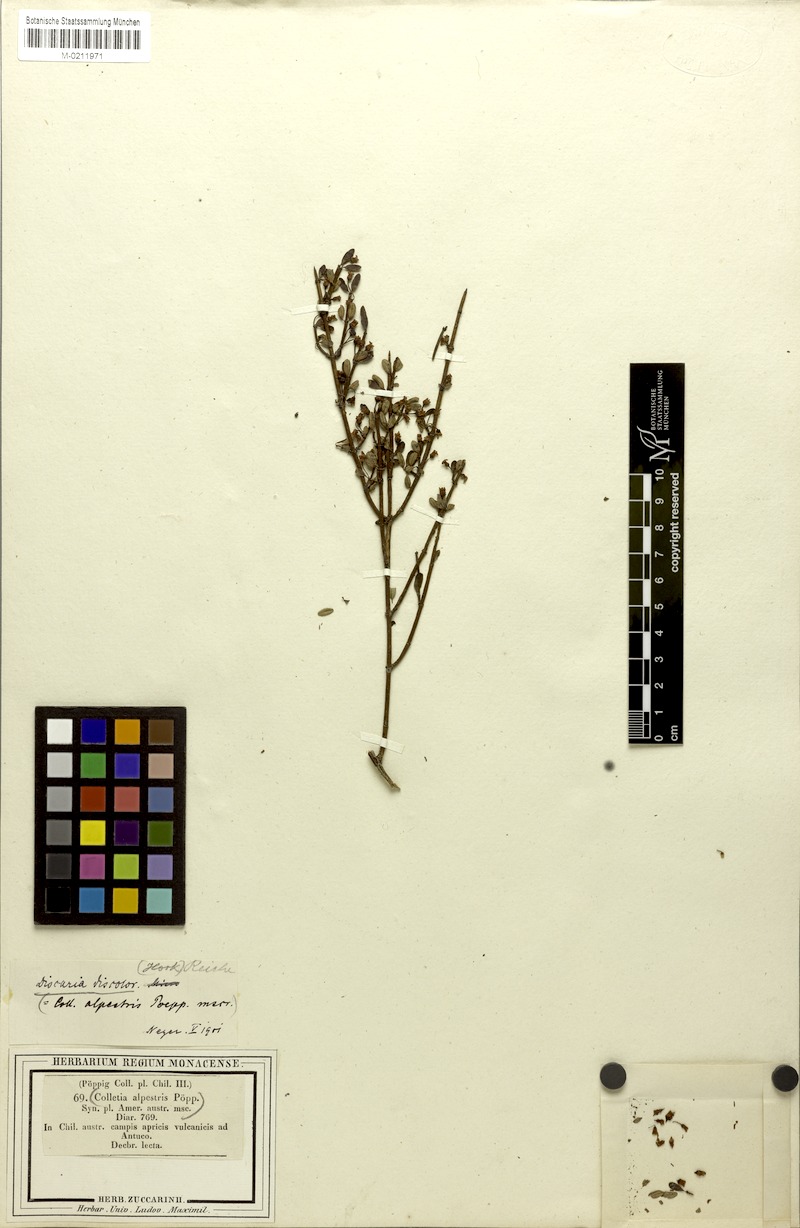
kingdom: Plantae
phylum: Tracheophyta
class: Magnoliopsida
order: Rosales
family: Rhamnaceae
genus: Discaria
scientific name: Discaria chacaye
